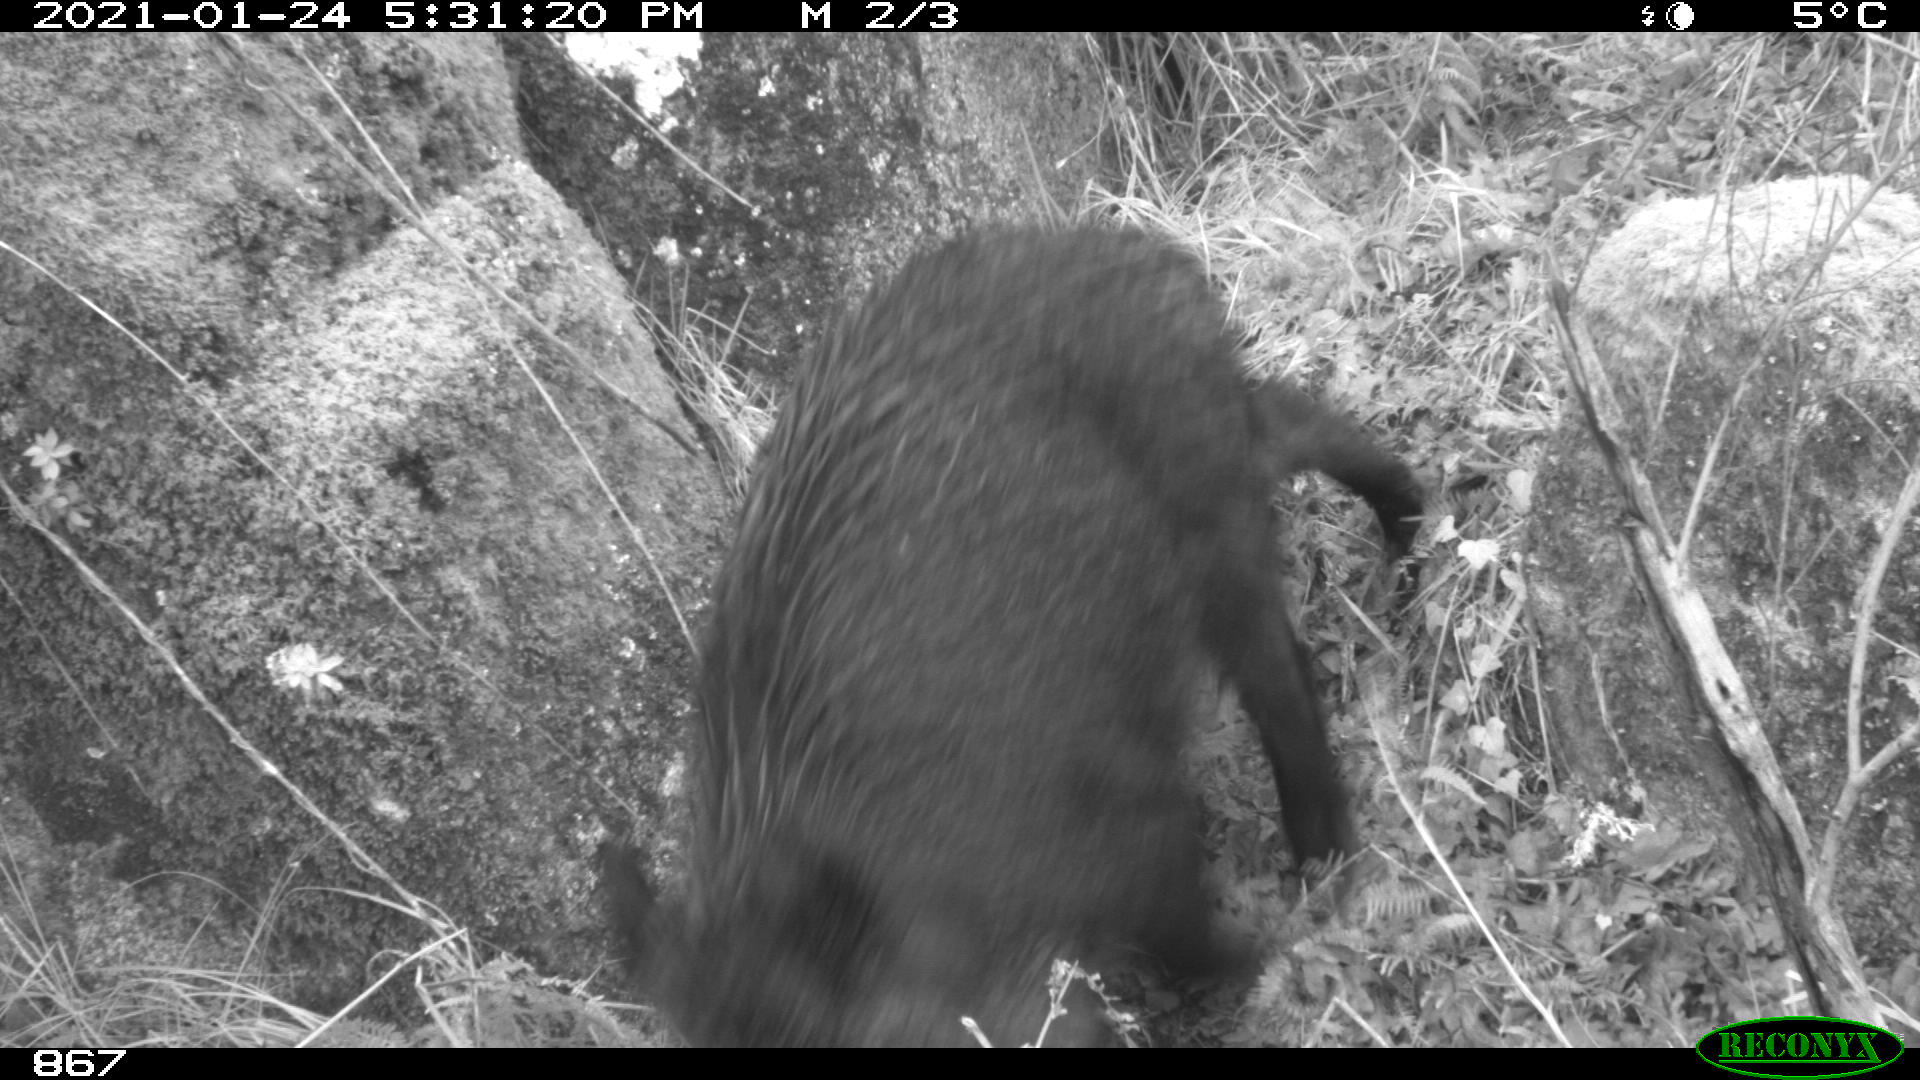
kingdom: Animalia
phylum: Chordata
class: Mammalia
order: Artiodactyla
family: Suidae
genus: Sus
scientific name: Sus scrofa
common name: Wild boar
